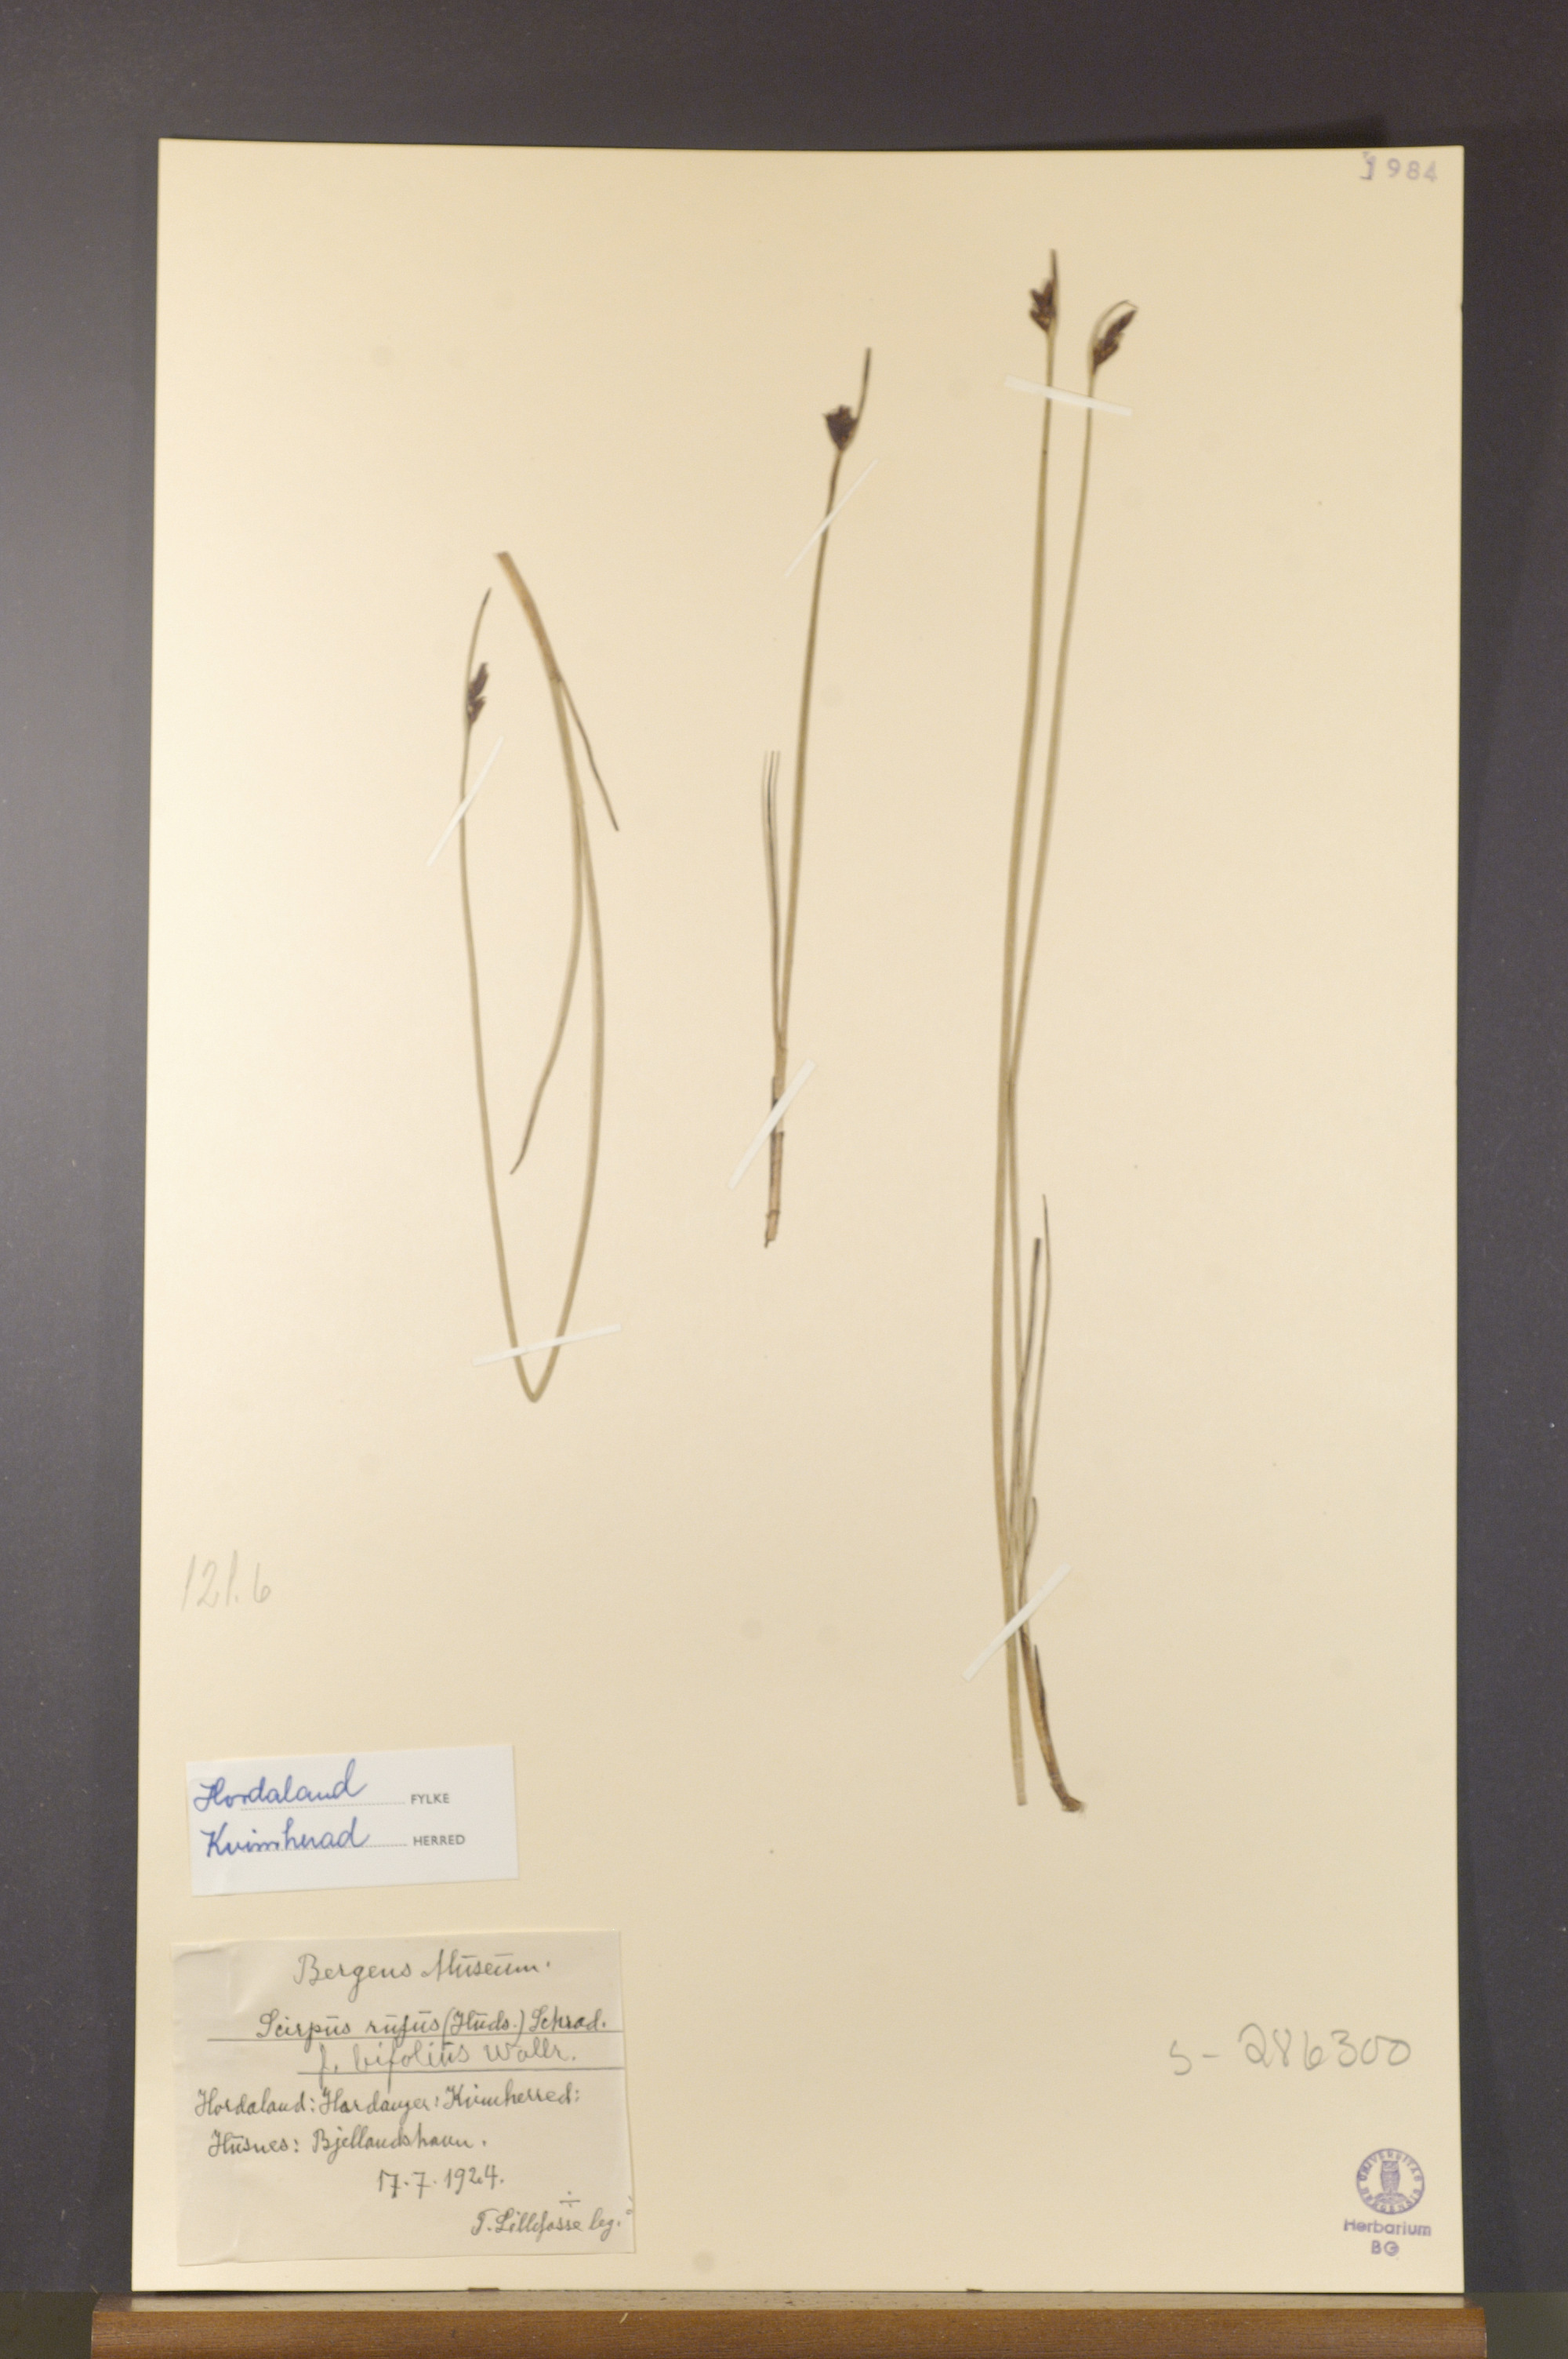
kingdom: Plantae
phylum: Tracheophyta
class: Liliopsida
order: Poales
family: Cyperaceae
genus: Blysmus
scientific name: Blysmus rufus
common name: Saltmarsh flat-sedge
